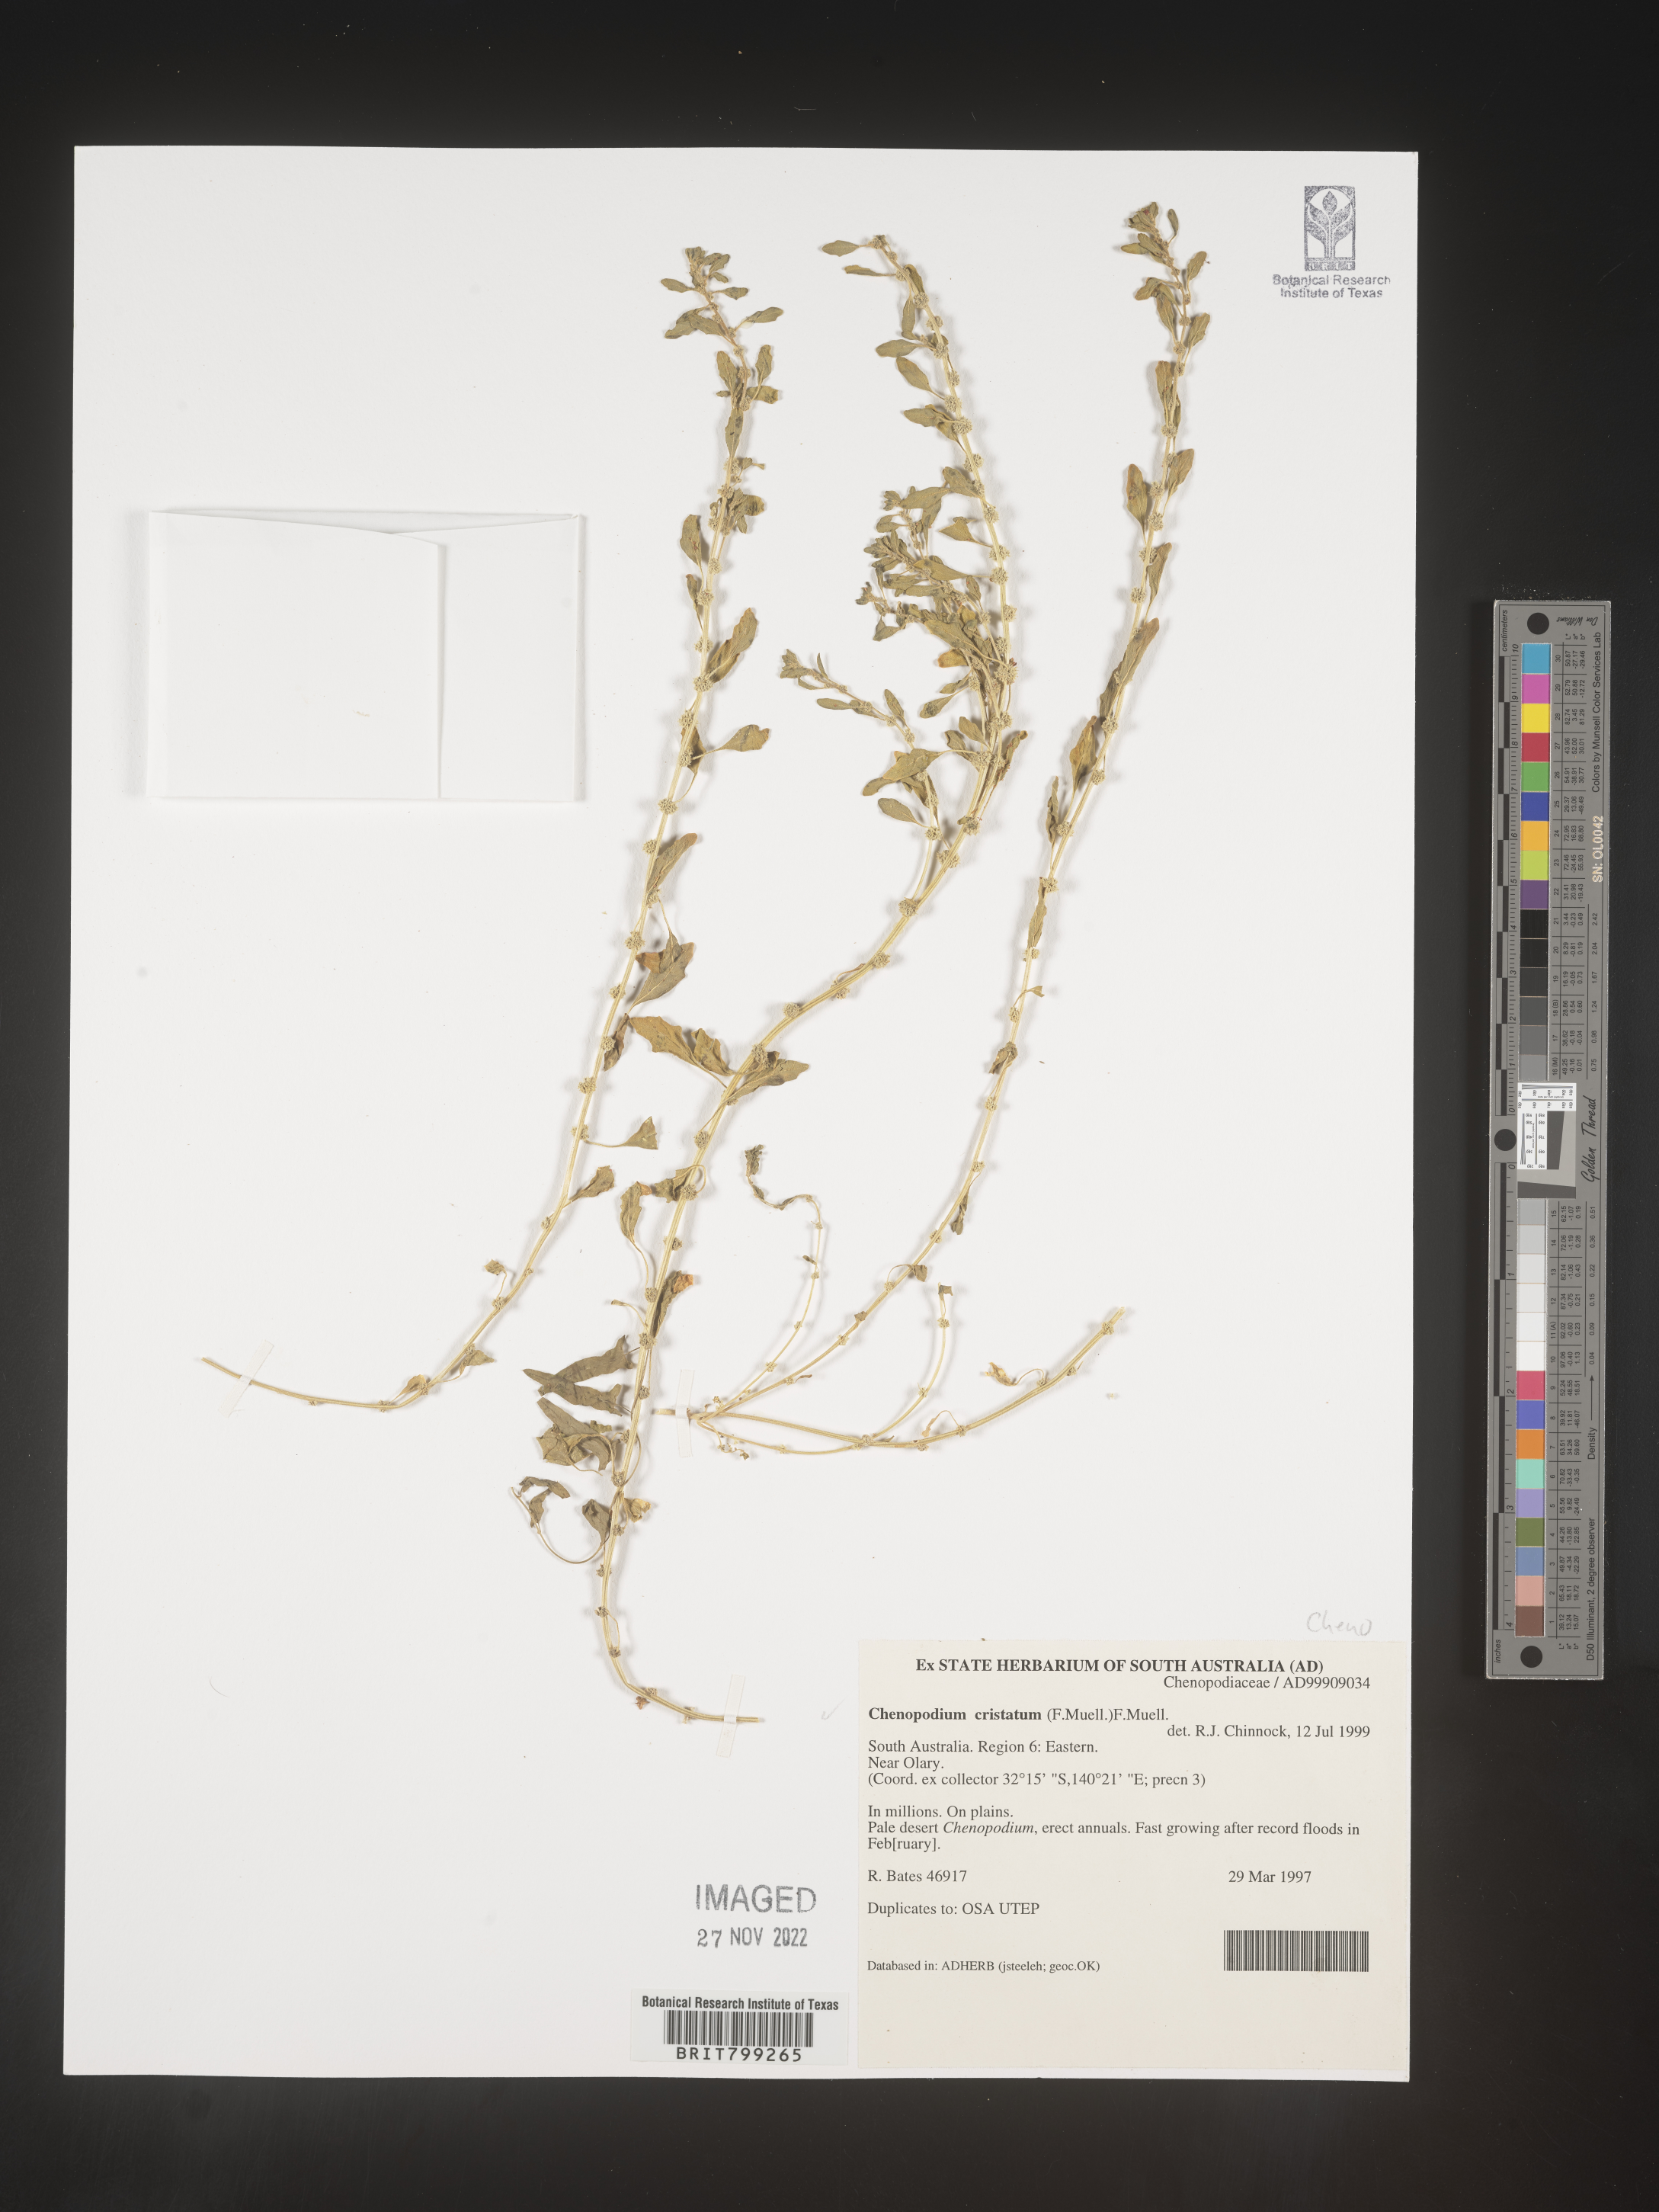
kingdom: Plantae
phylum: Tracheophyta
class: Magnoliopsida
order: Caryophyllales
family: Amaranthaceae
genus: Chenopodium
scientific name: Chenopodium
